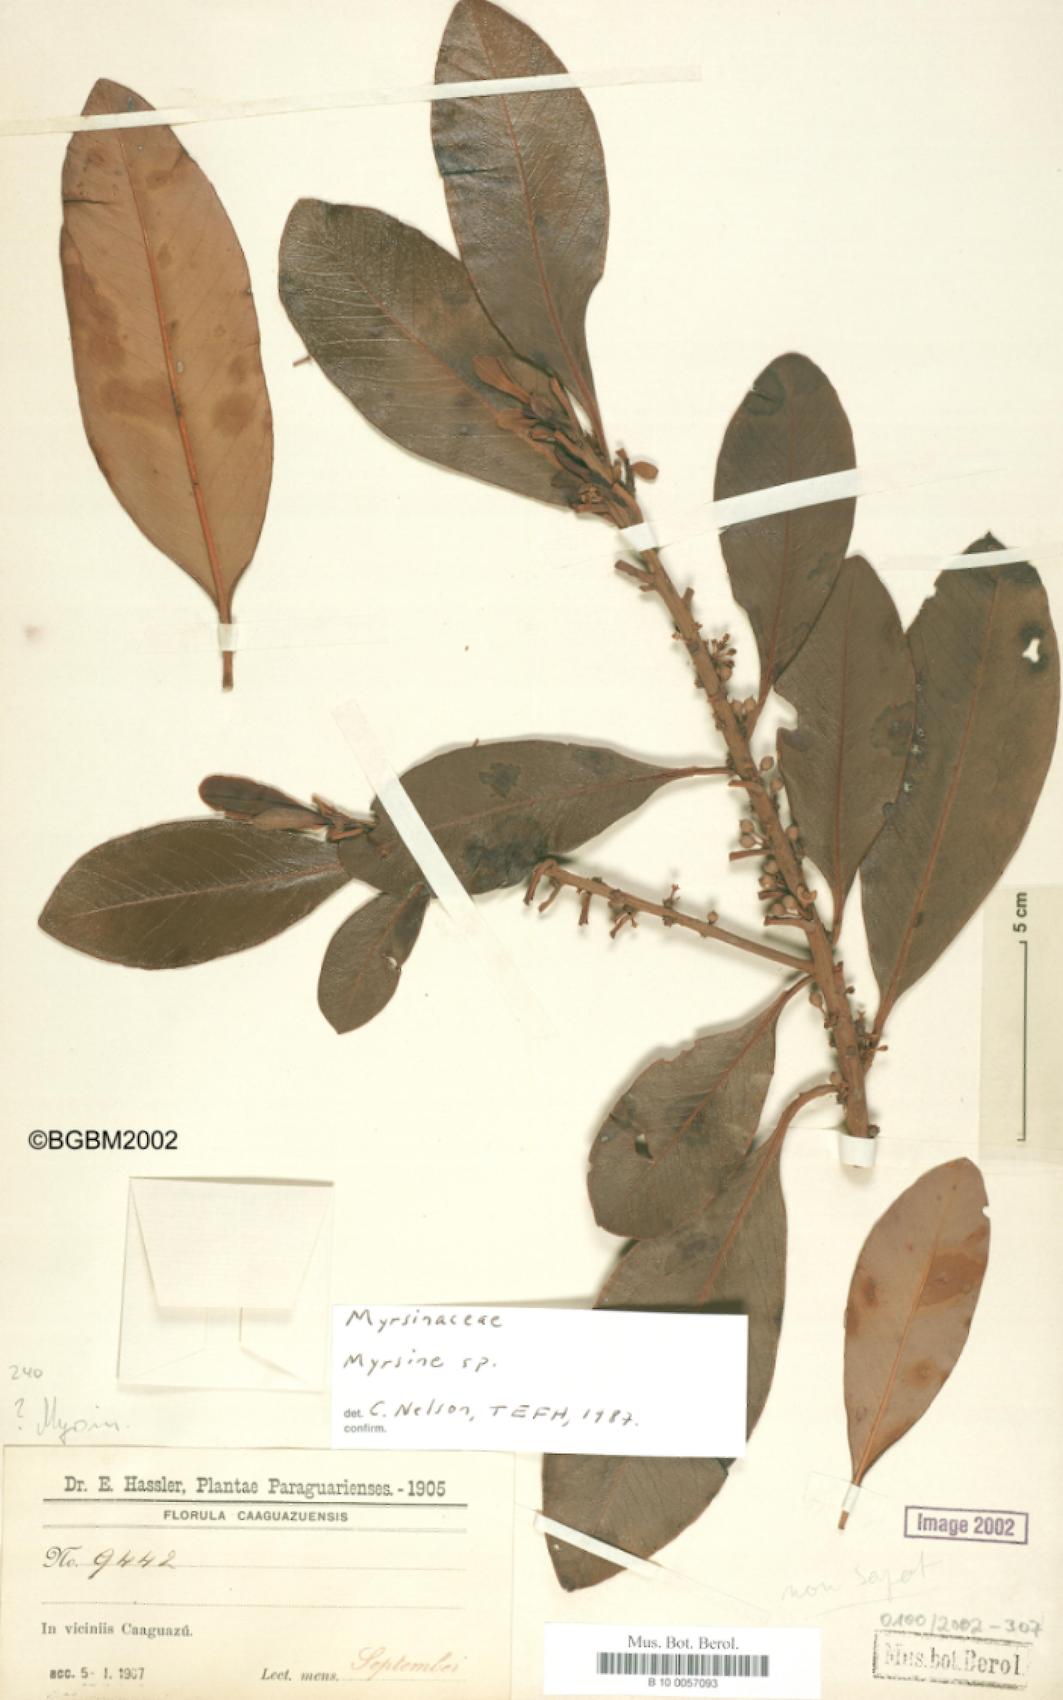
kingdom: Plantae
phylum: Tracheophyta
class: Magnoliopsida
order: Ericales
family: Primulaceae
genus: Myrsine
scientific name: Myrsine
